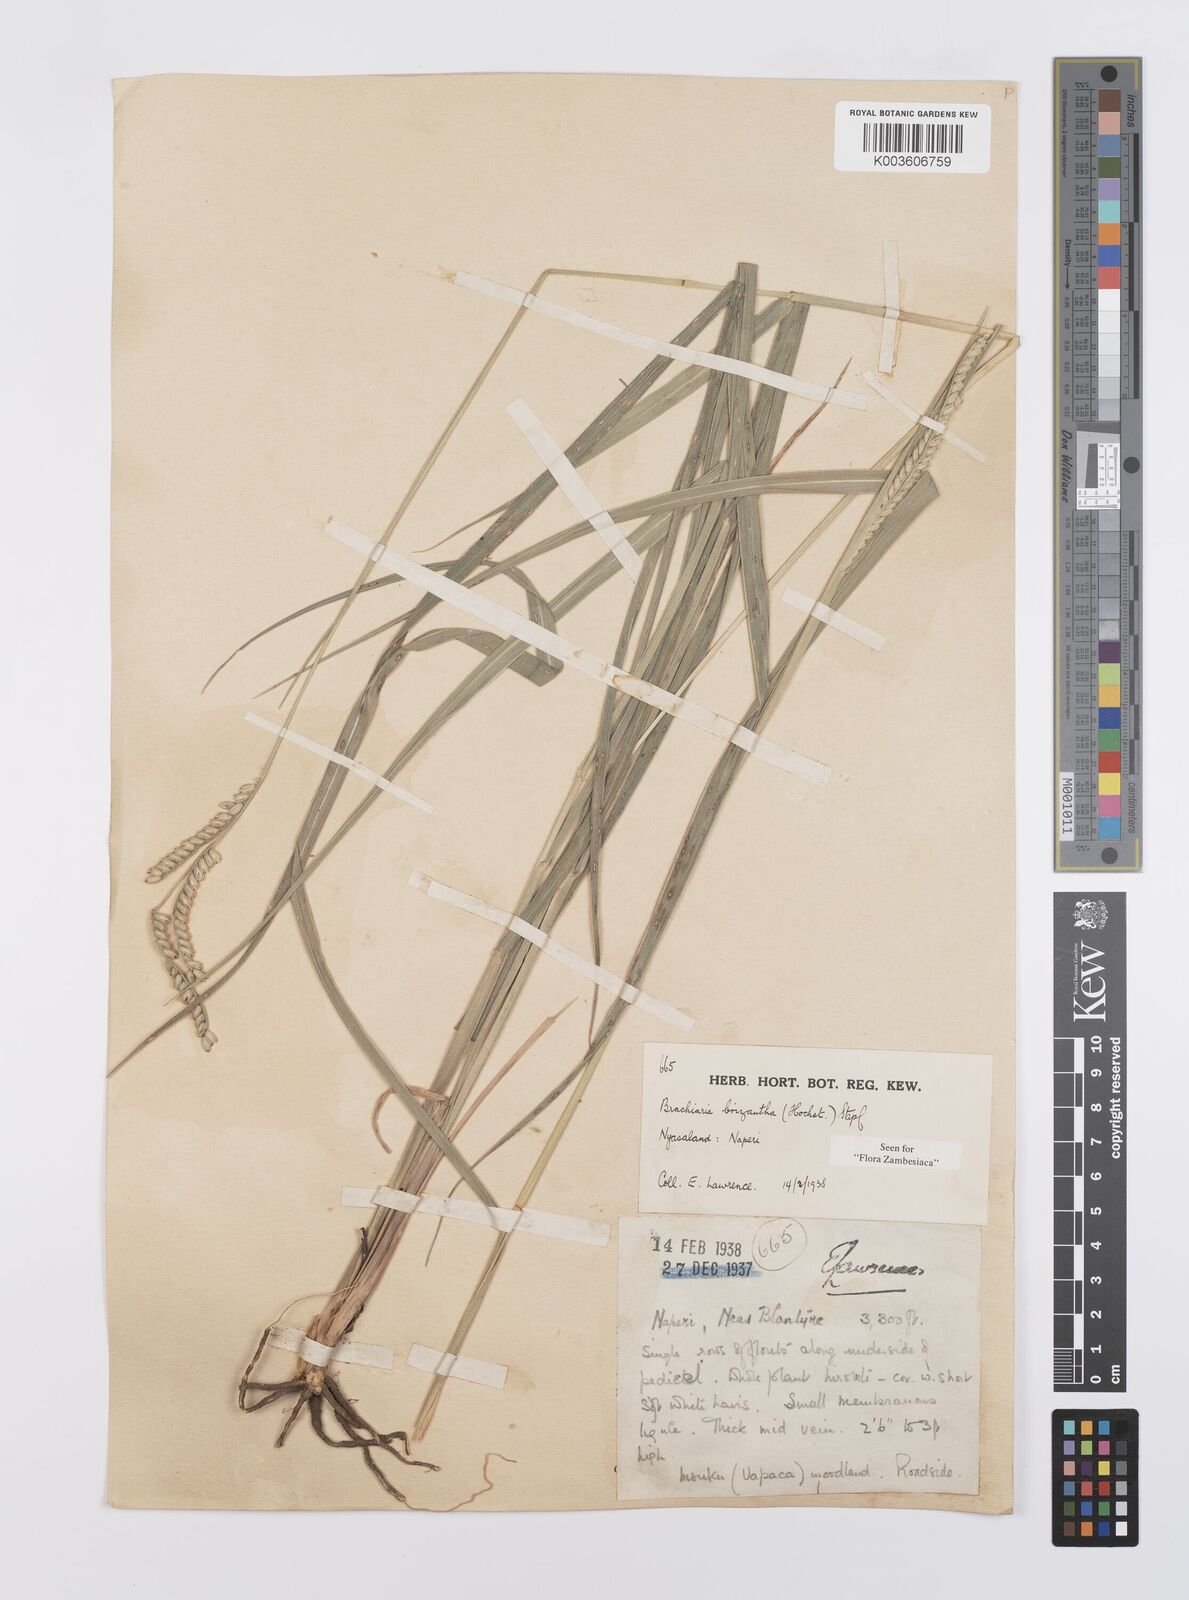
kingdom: Plantae
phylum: Tracheophyta
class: Liliopsida
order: Poales
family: Poaceae
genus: Urochloa
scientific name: Urochloa brizantha
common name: Palisade signalgrass
